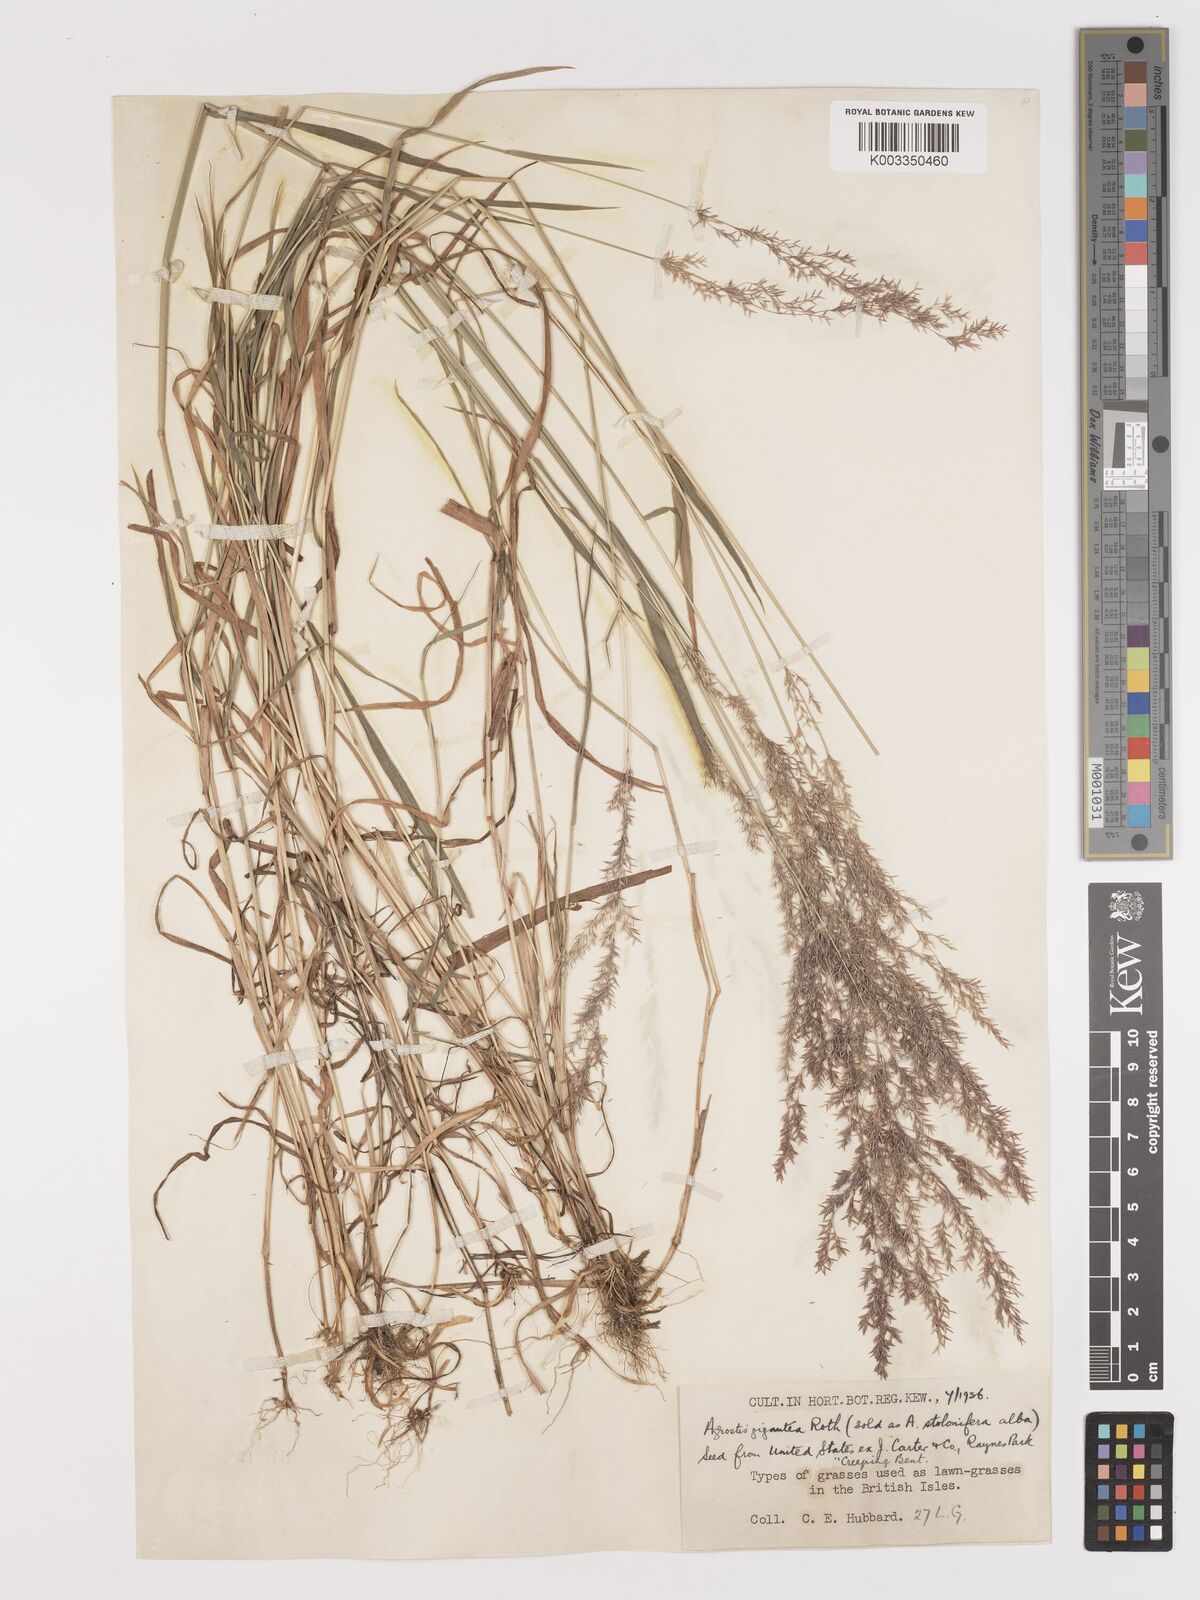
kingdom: Plantae
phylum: Tracheophyta
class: Liliopsida
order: Poales
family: Poaceae
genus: Agrostis
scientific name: Agrostis gigantea
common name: Black bent
